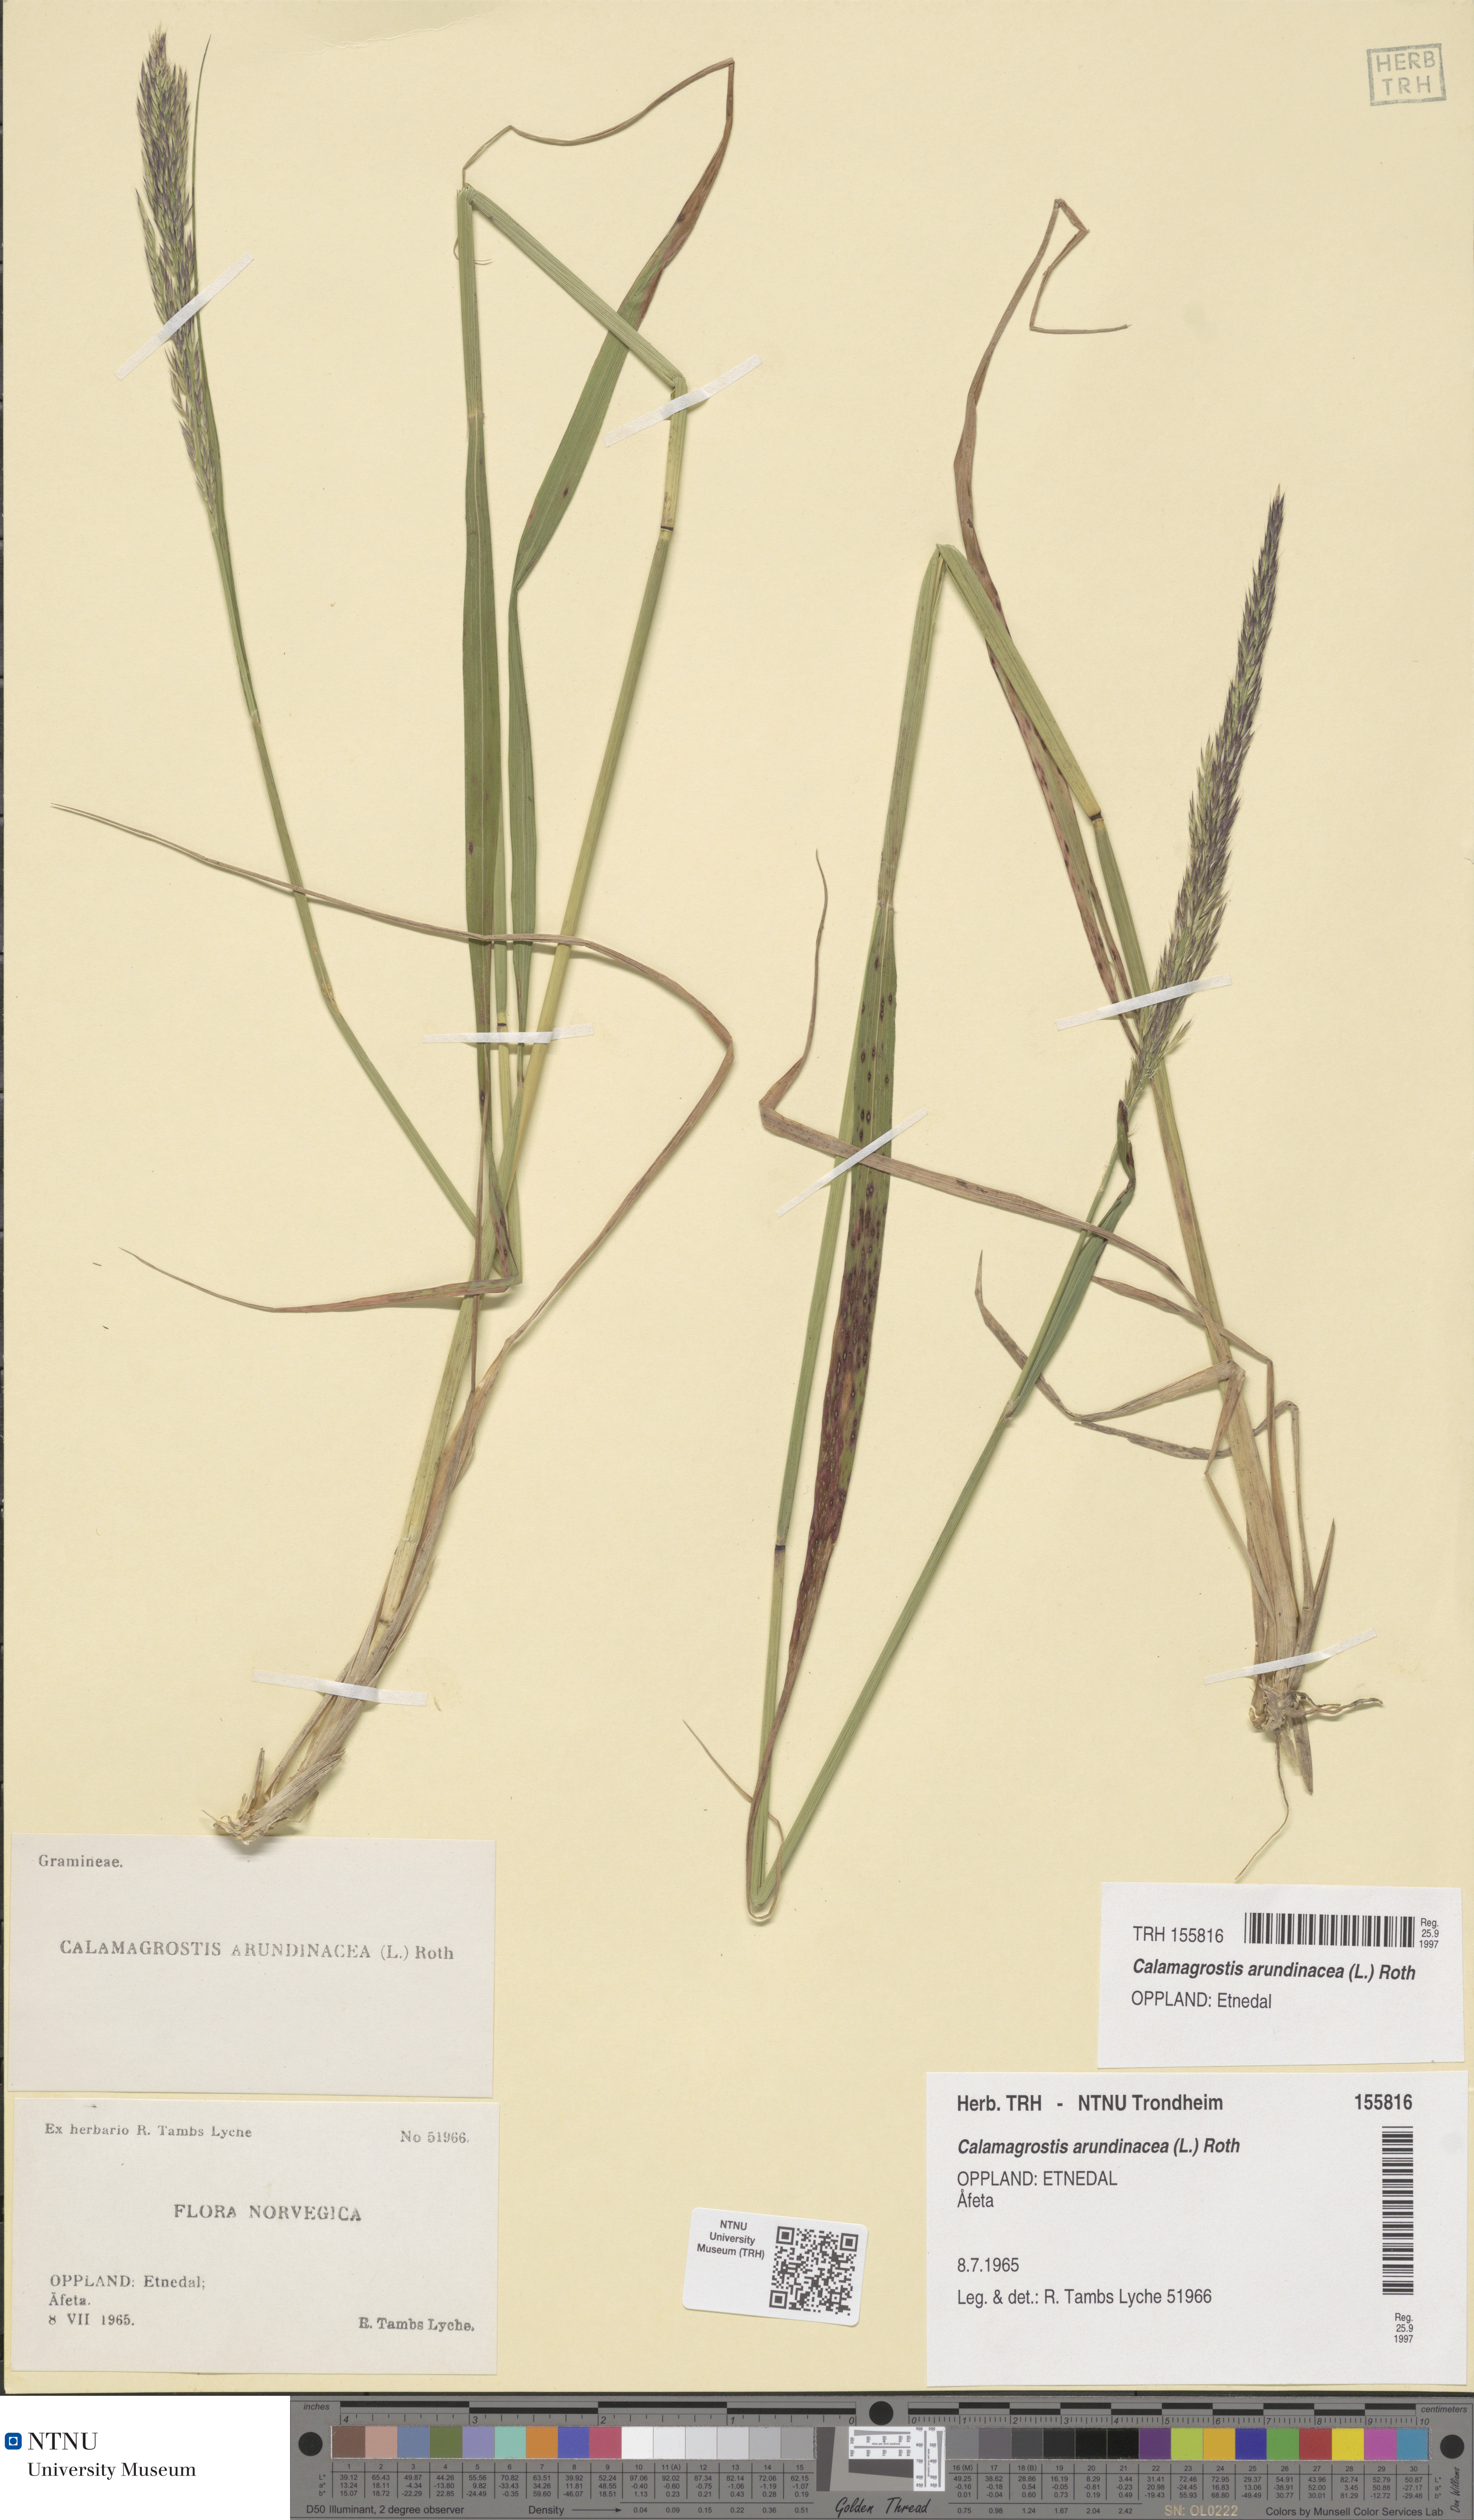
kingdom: Plantae
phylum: Tracheophyta
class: Liliopsida
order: Poales
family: Poaceae
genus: Calamagrostis
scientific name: Calamagrostis arundinacea
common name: Metskastik
